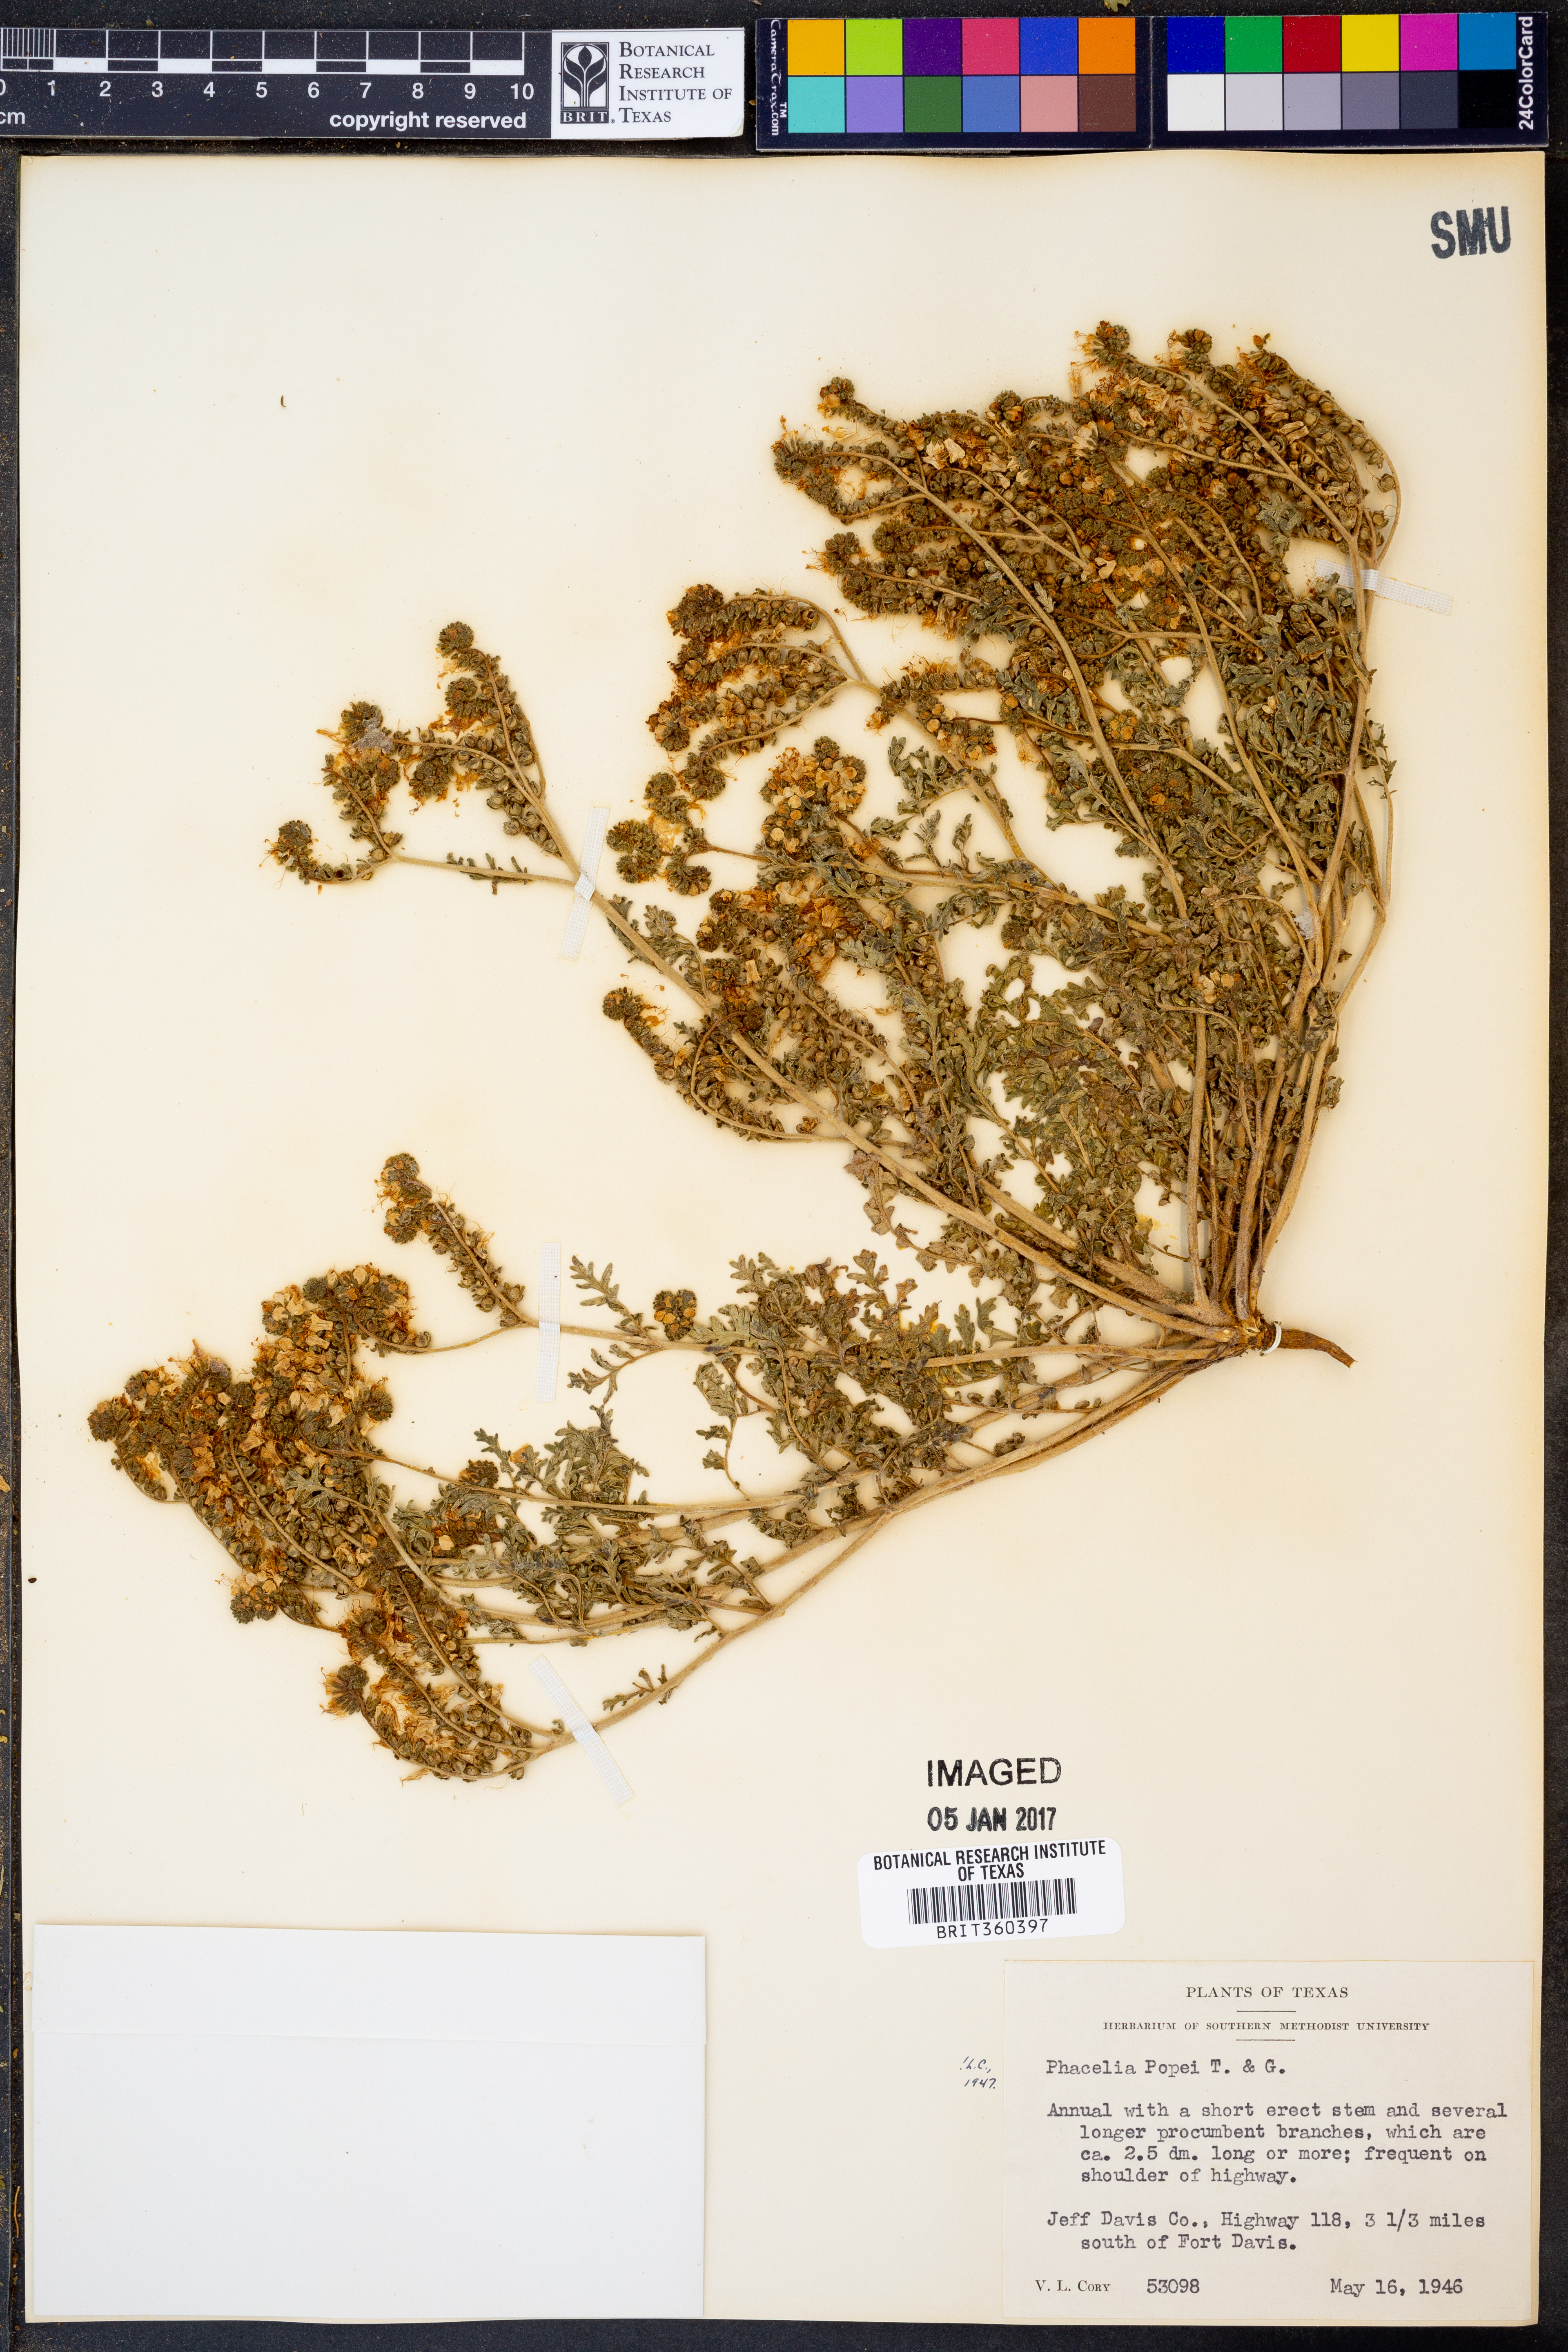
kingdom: Plantae
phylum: Tracheophyta
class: Magnoliopsida
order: Boraginales
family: Hydrophyllaceae
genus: Phacelia
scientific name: Phacelia popei
